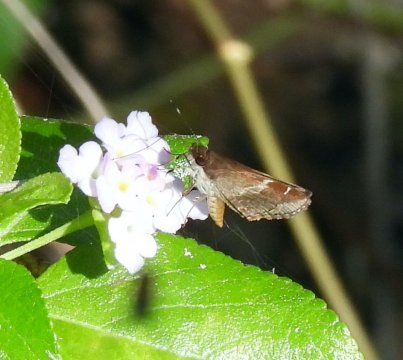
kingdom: Animalia
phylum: Arthropoda
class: Insecta
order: Lepidoptera
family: Hesperiidae
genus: Moeris
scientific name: Moeris crispinus
